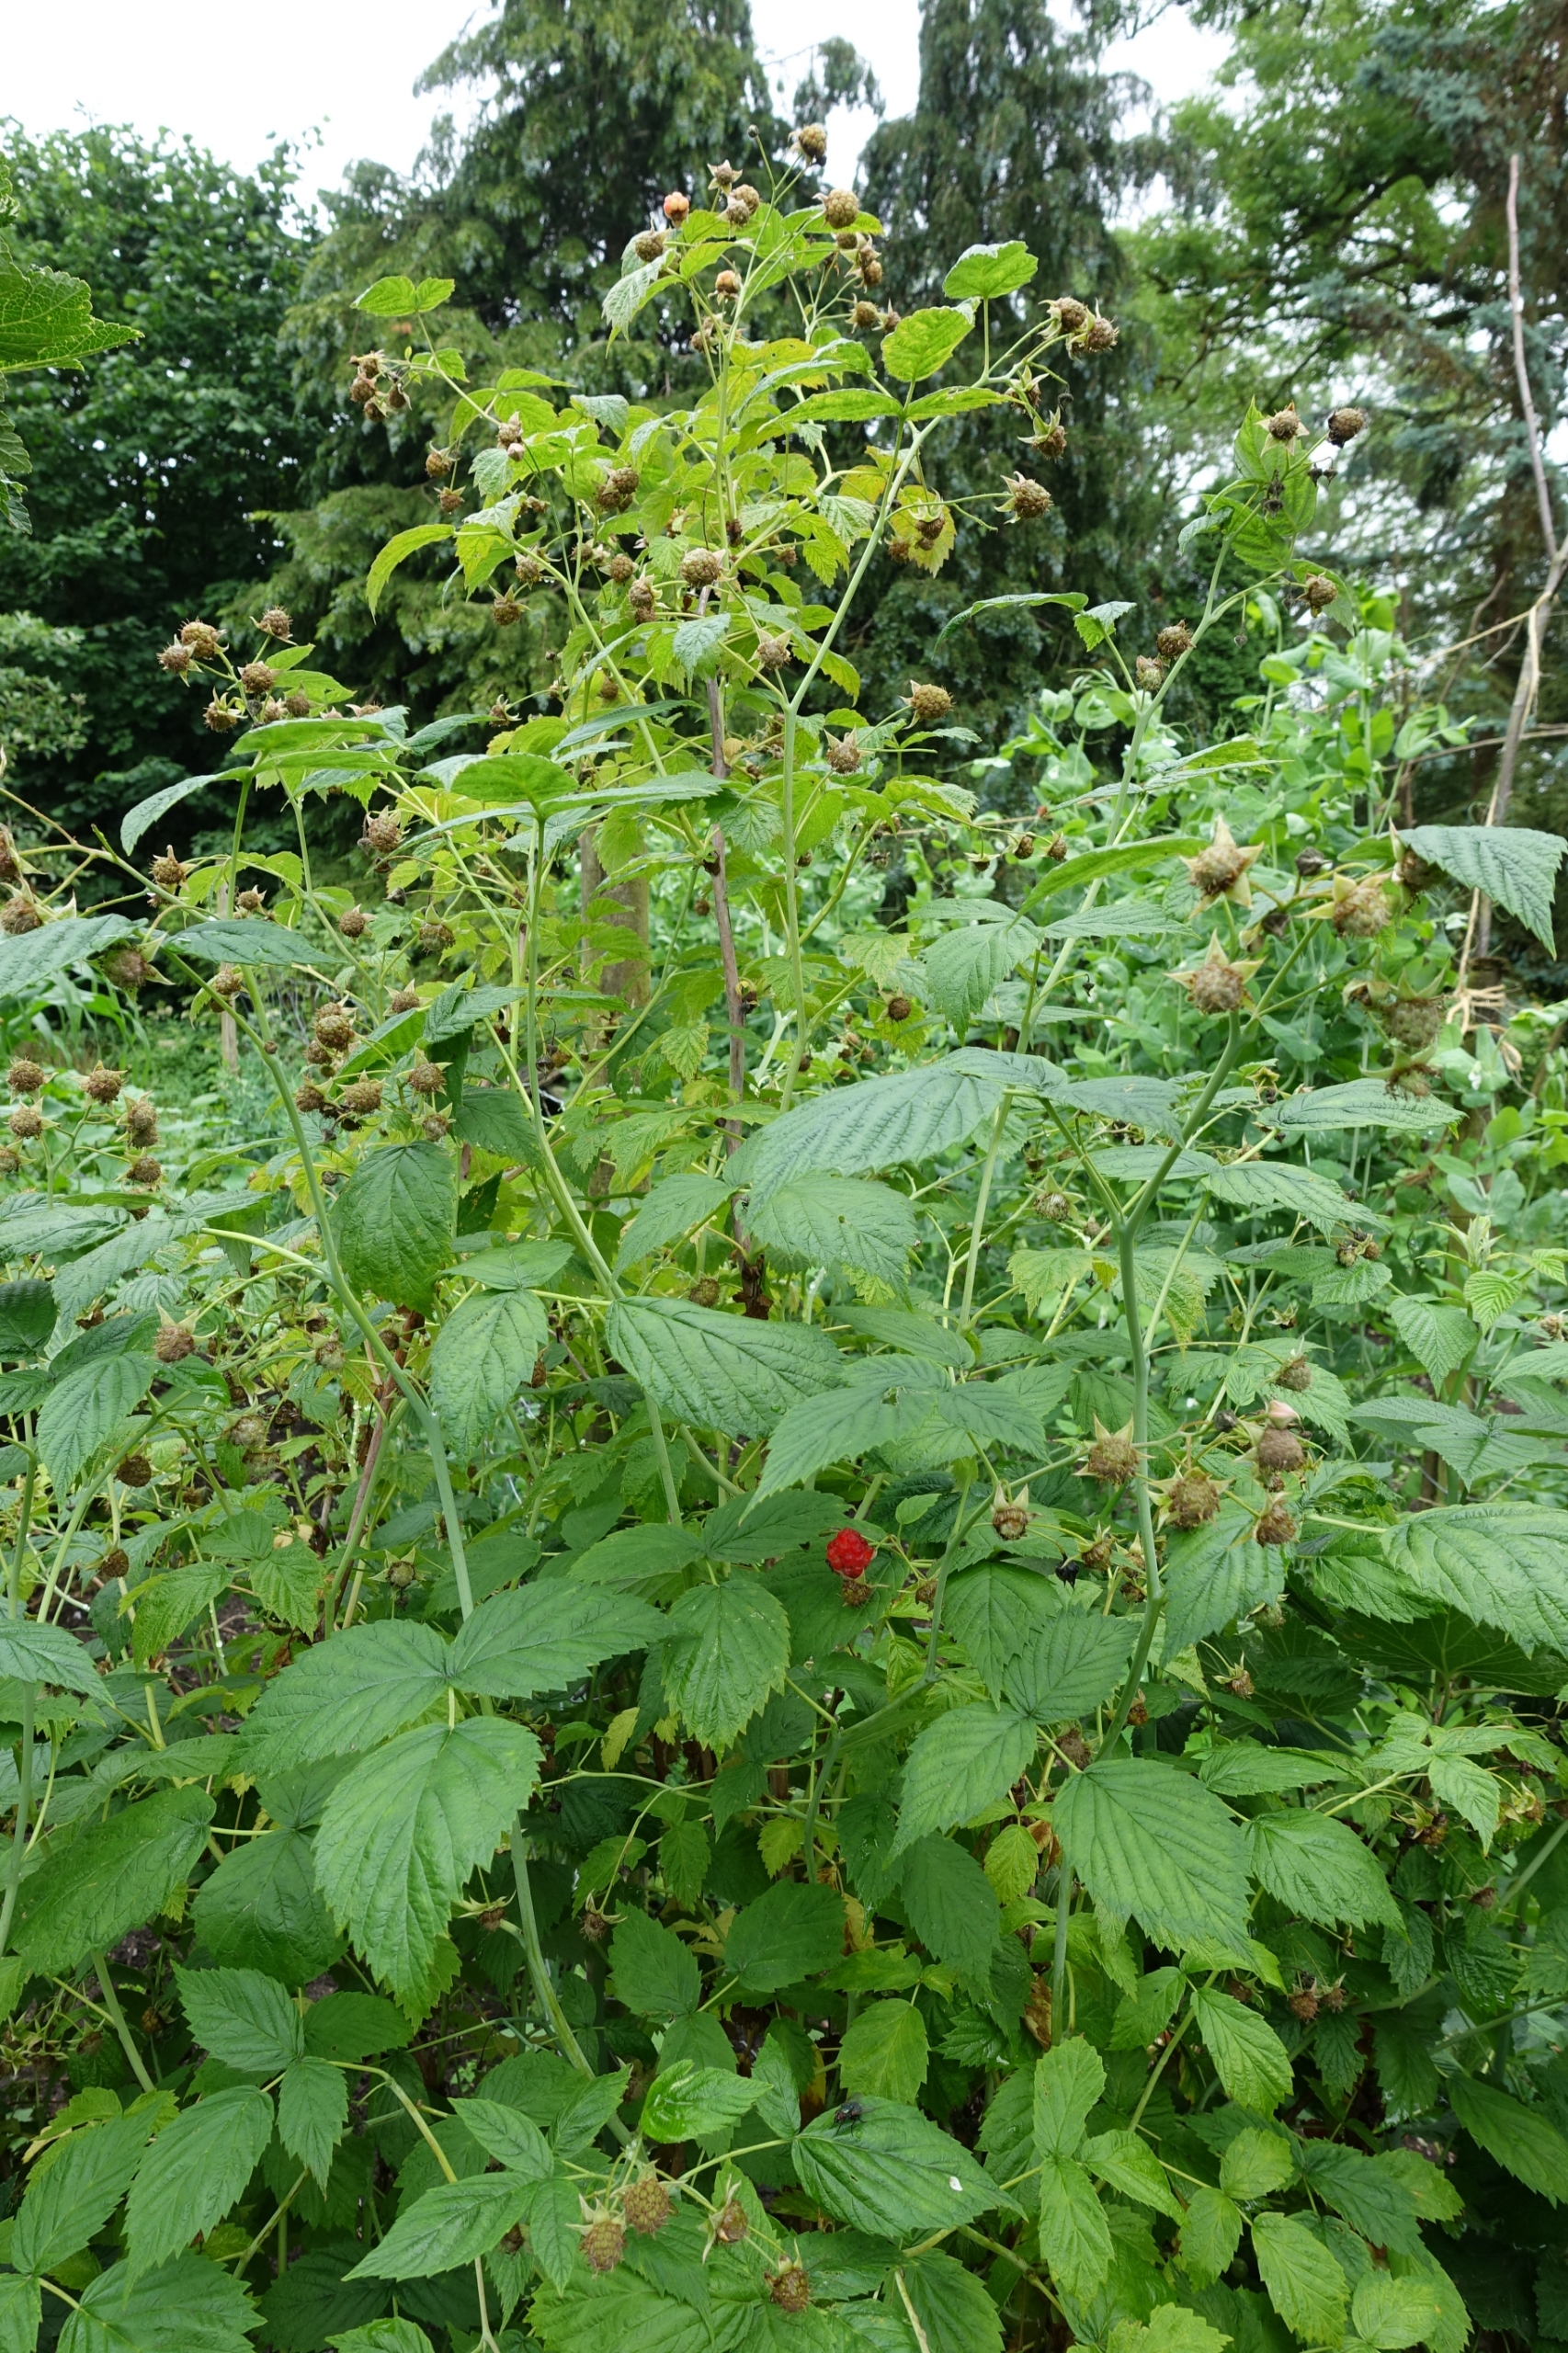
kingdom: Plantae
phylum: Tracheophyta
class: Magnoliopsida
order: Rosales
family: Rosaceae
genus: Rubus
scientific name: Rubus idaeus
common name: Hindbær
